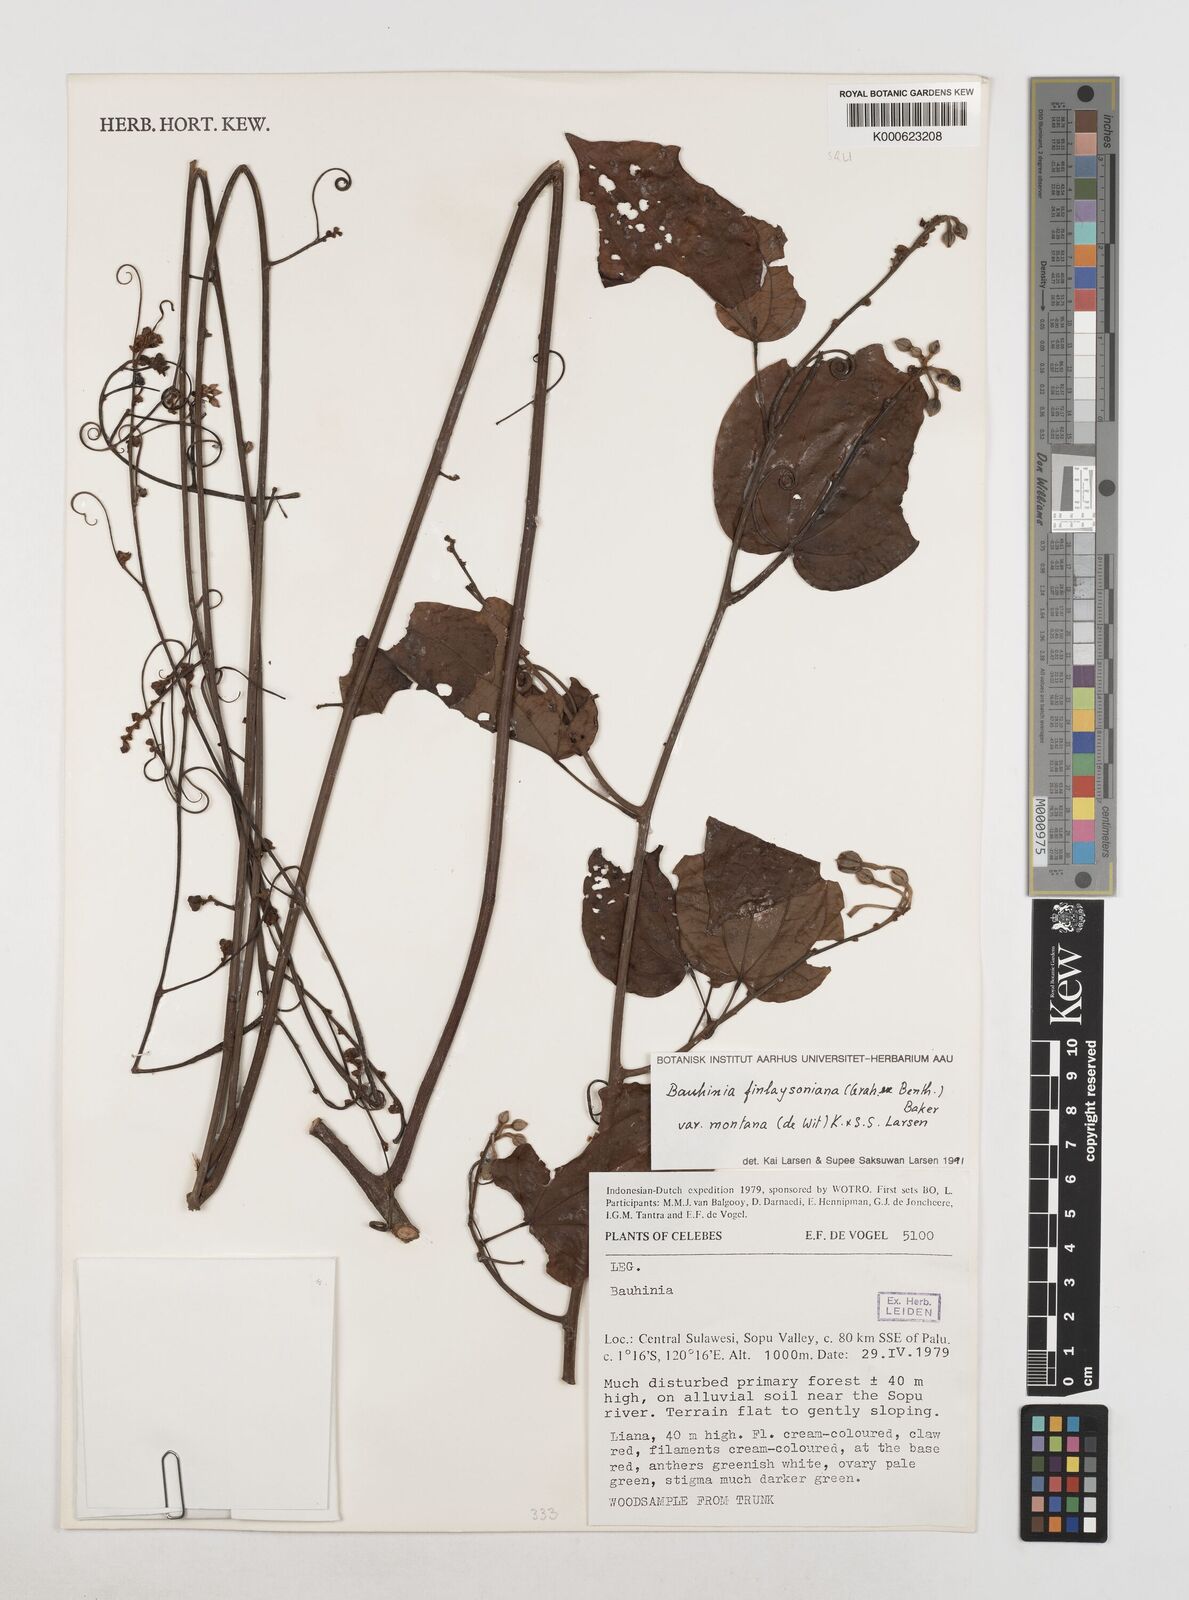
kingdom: Plantae
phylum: Tracheophyta
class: Magnoliopsida
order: Fabales
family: Fabaceae
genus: Phanera
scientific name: Phanera finlaysoniana
